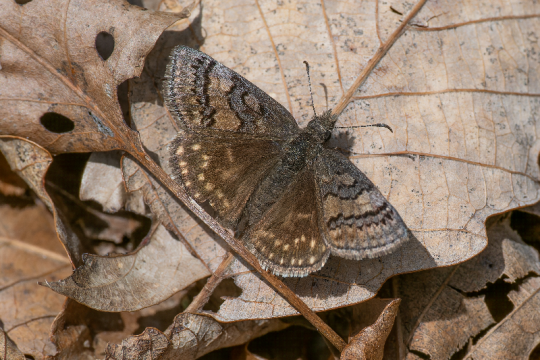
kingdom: Animalia
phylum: Arthropoda
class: Insecta
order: Lepidoptera
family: Hesperiidae
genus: Erynnis
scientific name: Erynnis brizo
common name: Sleepy Duskywing
